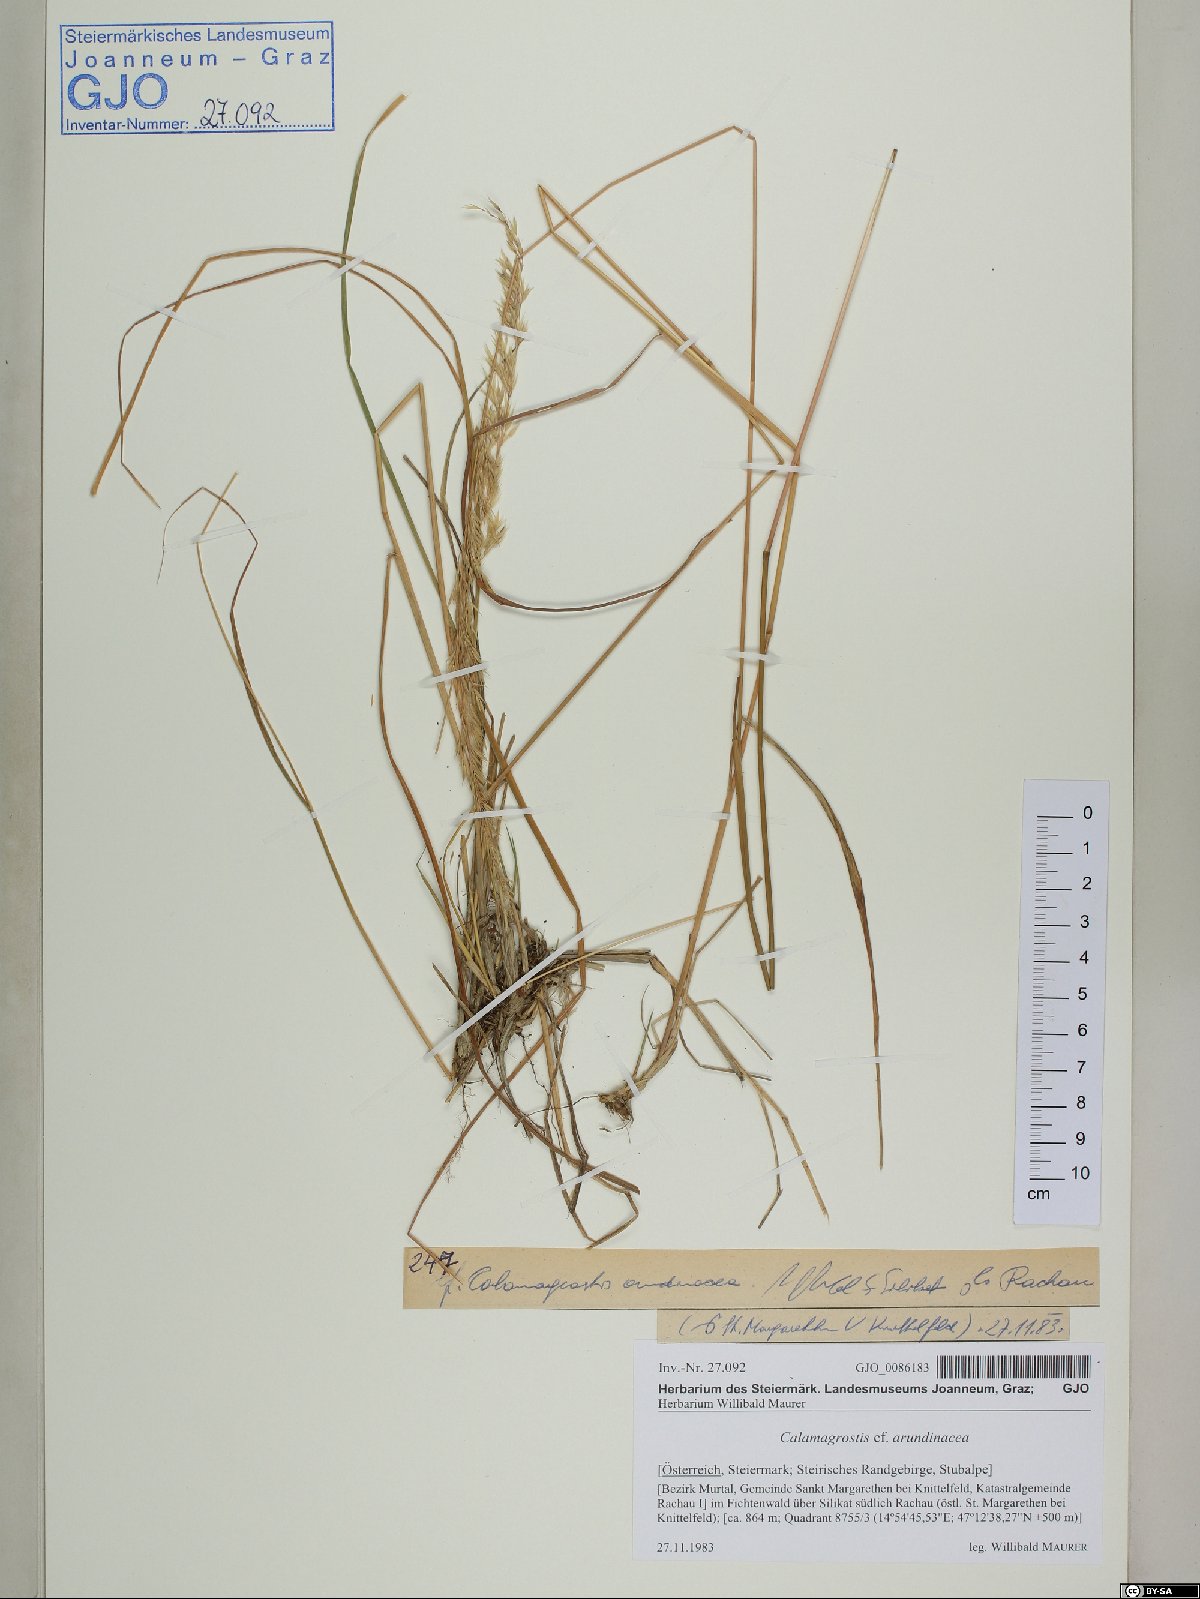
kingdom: Plantae
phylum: Tracheophyta
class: Liliopsida
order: Poales
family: Poaceae
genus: Calamagrostis
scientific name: Calamagrostis arundinacea
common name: Metskastik
